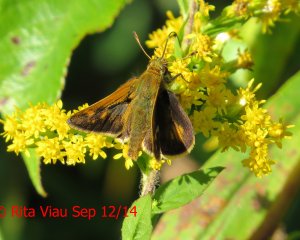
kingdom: Animalia
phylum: Arthropoda
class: Insecta
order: Lepidoptera
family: Hesperiidae
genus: Polites
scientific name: Polites coras
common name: Peck's Skipper
